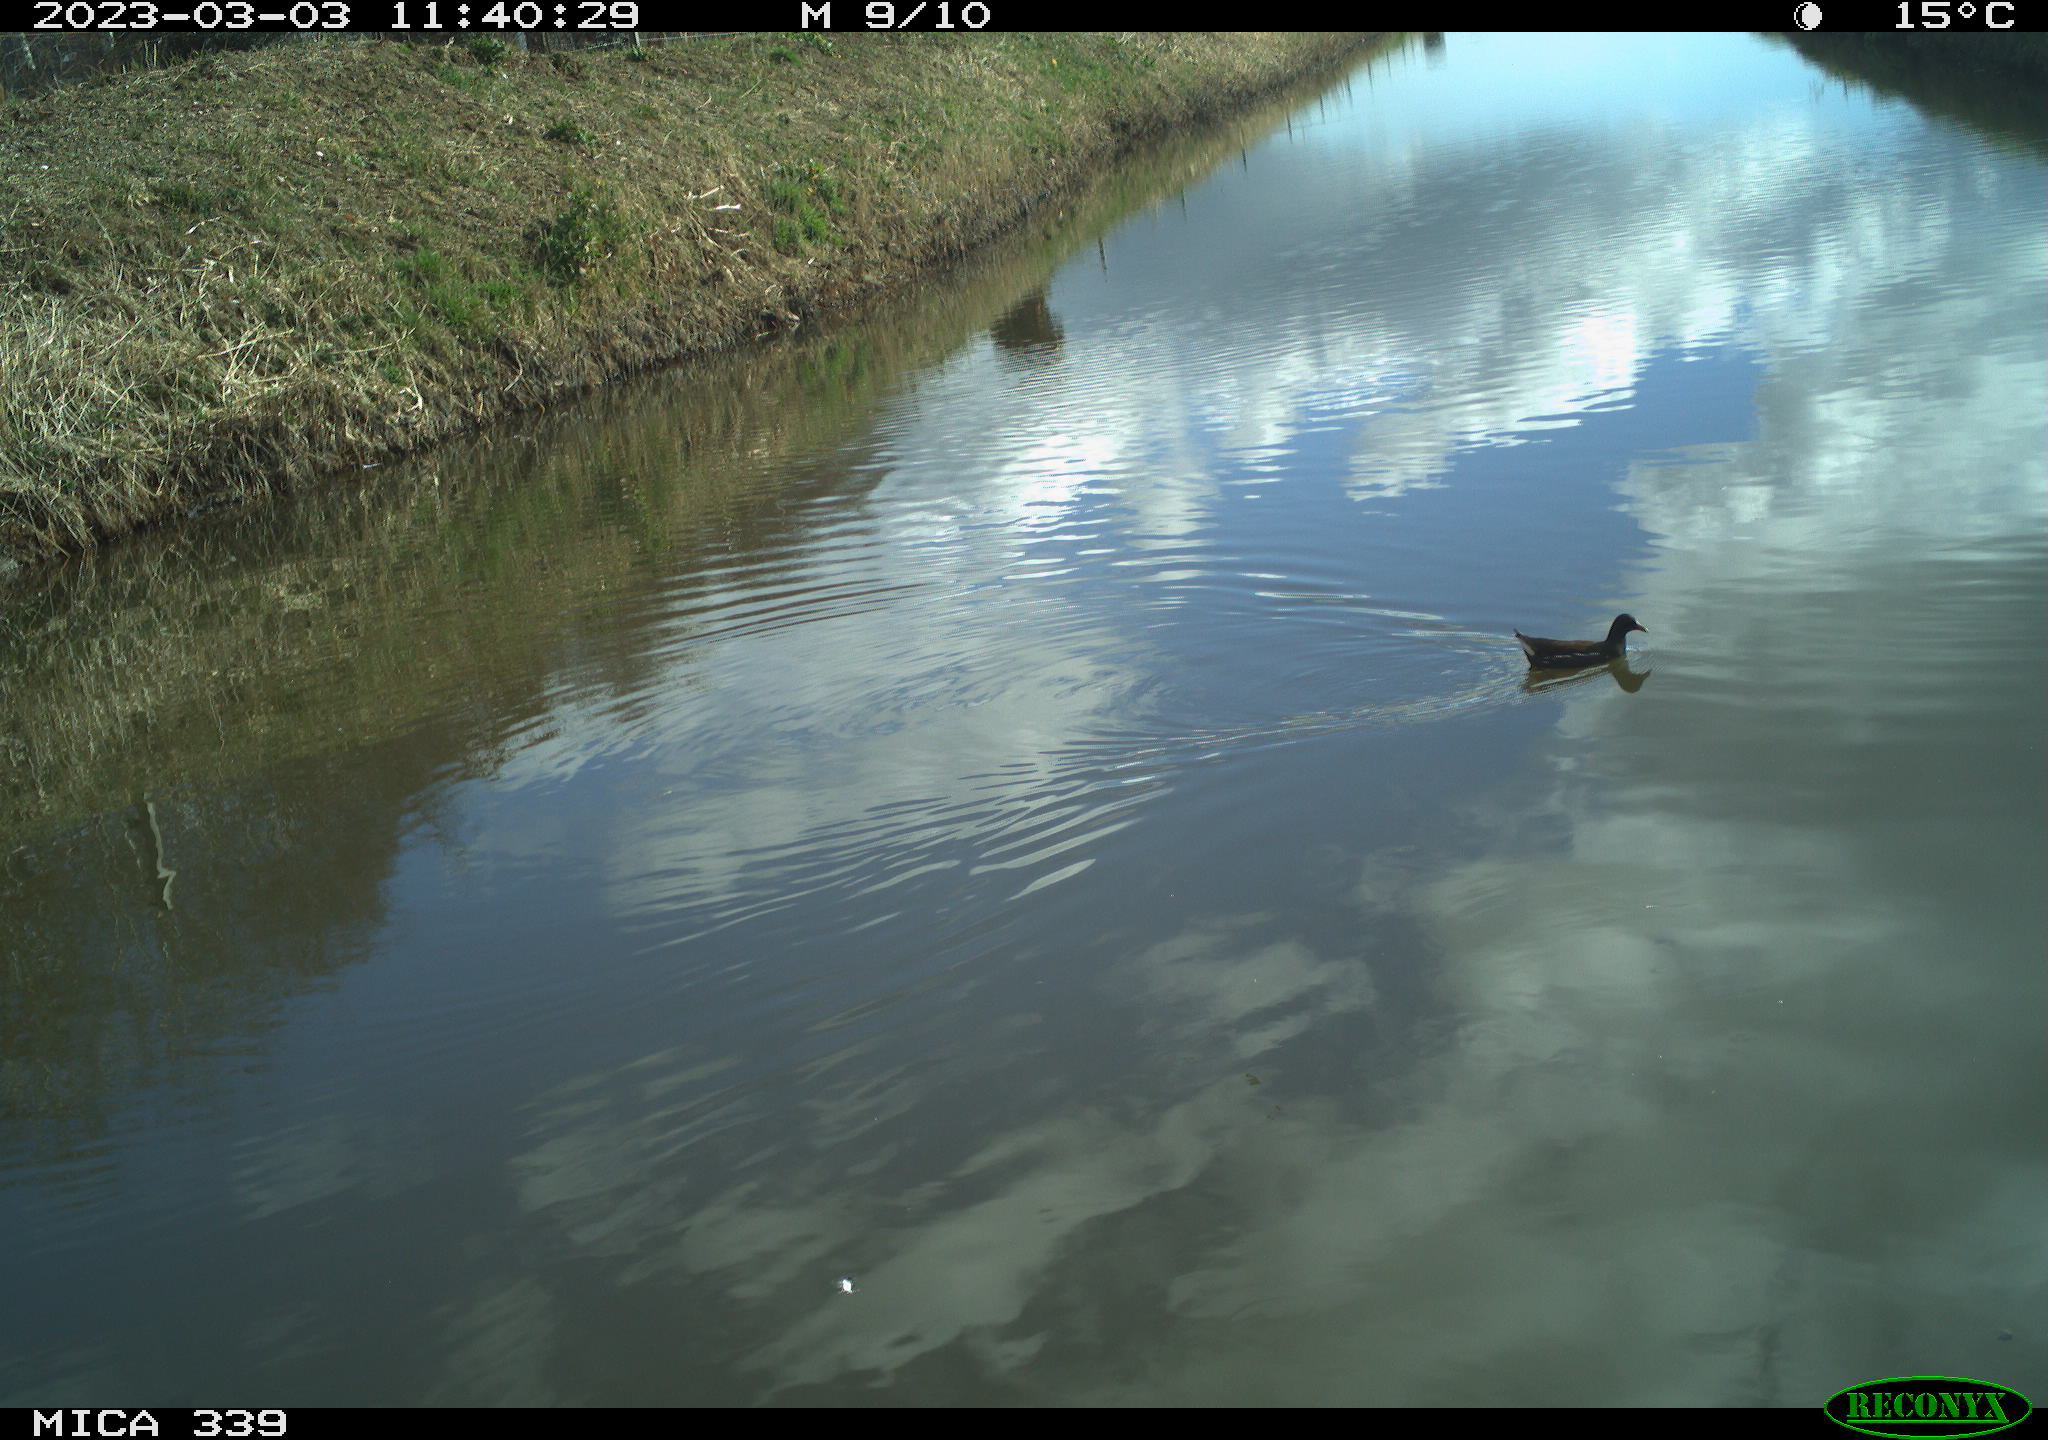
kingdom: Animalia
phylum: Chordata
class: Aves
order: Gruiformes
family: Rallidae
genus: Gallinula
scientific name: Gallinula chloropus
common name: Common moorhen
